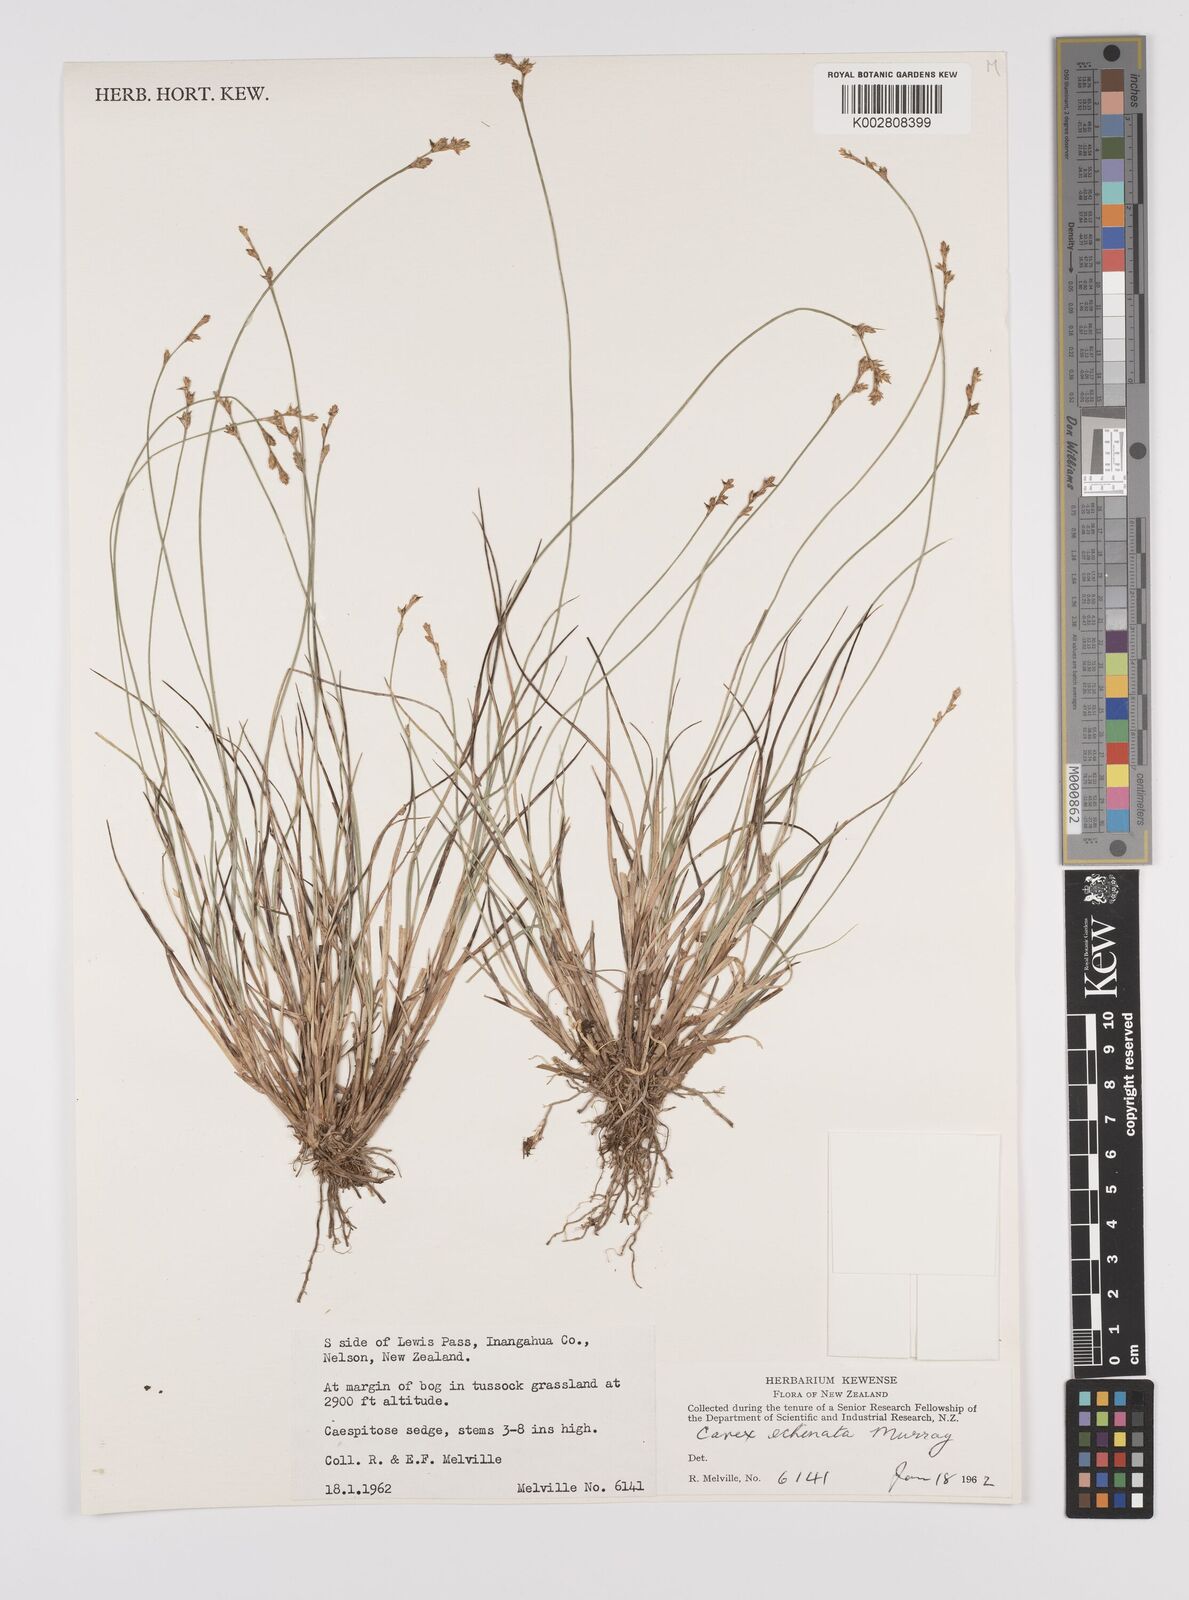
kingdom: Plantae
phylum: Tracheophyta
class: Liliopsida
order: Poales
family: Cyperaceae
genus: Carex
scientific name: Carex echinata
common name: Star sedge
